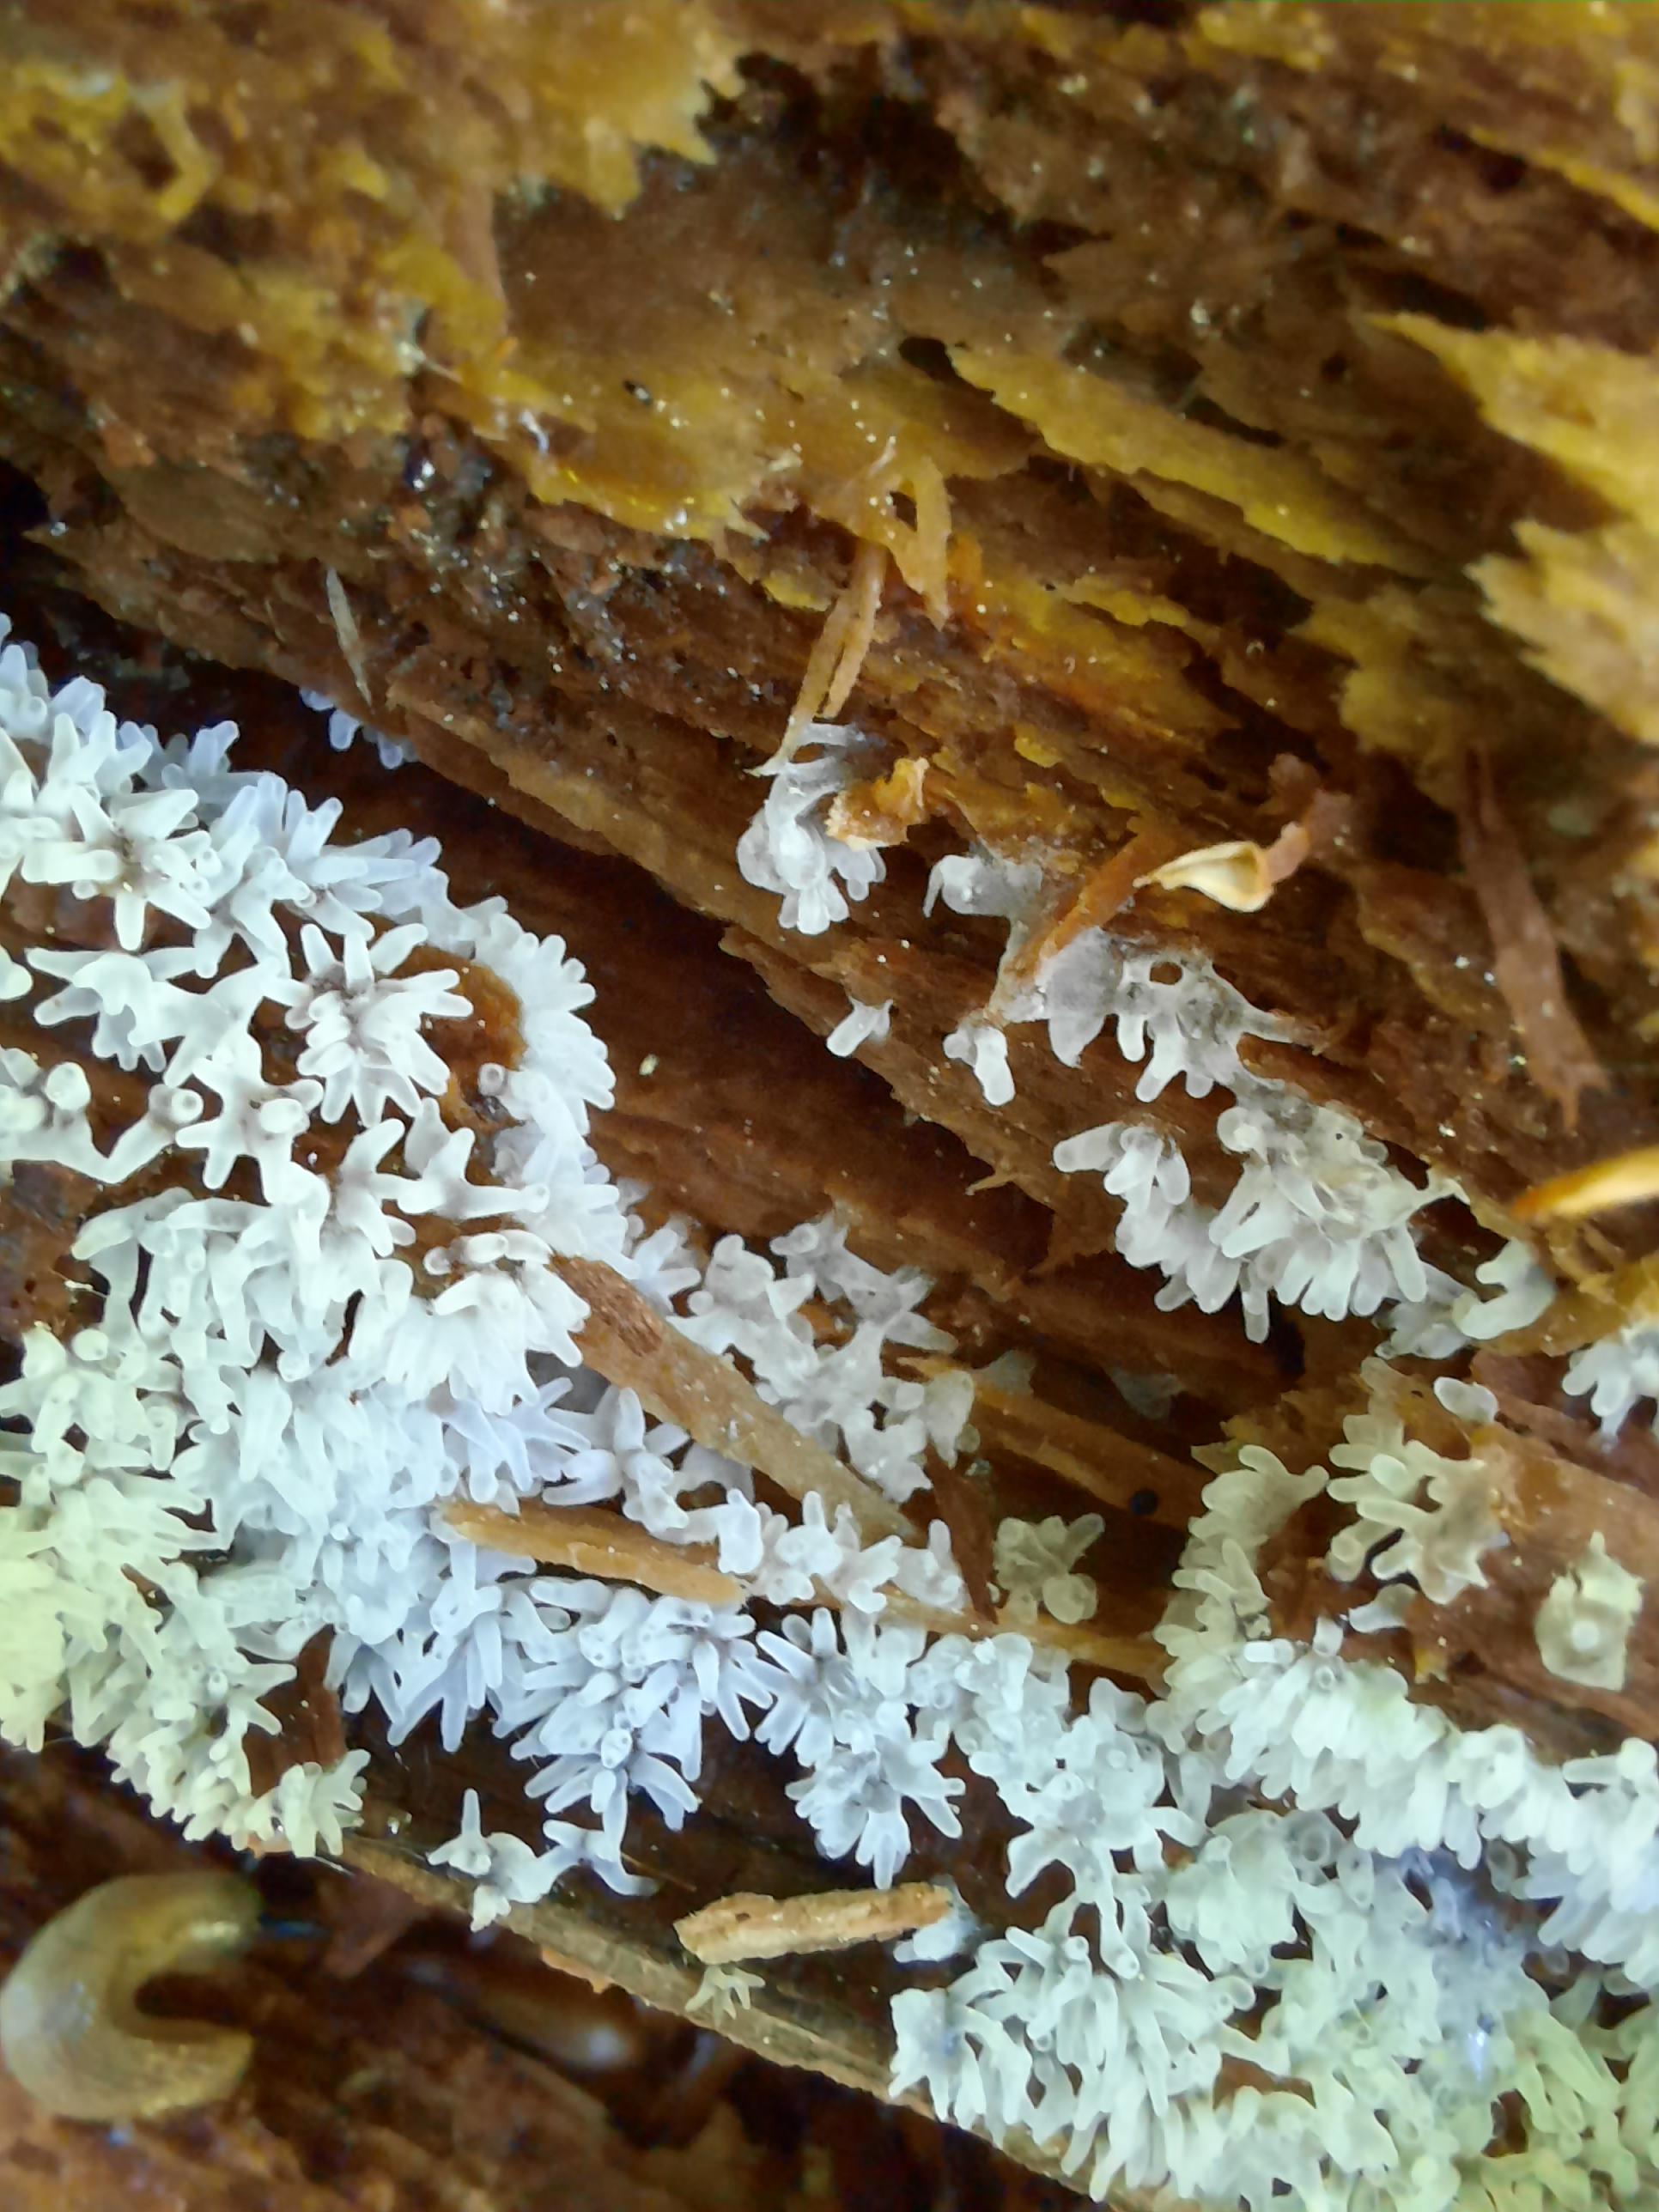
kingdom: Protozoa
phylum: Mycetozoa
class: Protosteliomycetes
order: Ceratiomyxales
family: Ceratiomyxaceae
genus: Ceratiomyxa
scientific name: Ceratiomyxa fruticulosa
